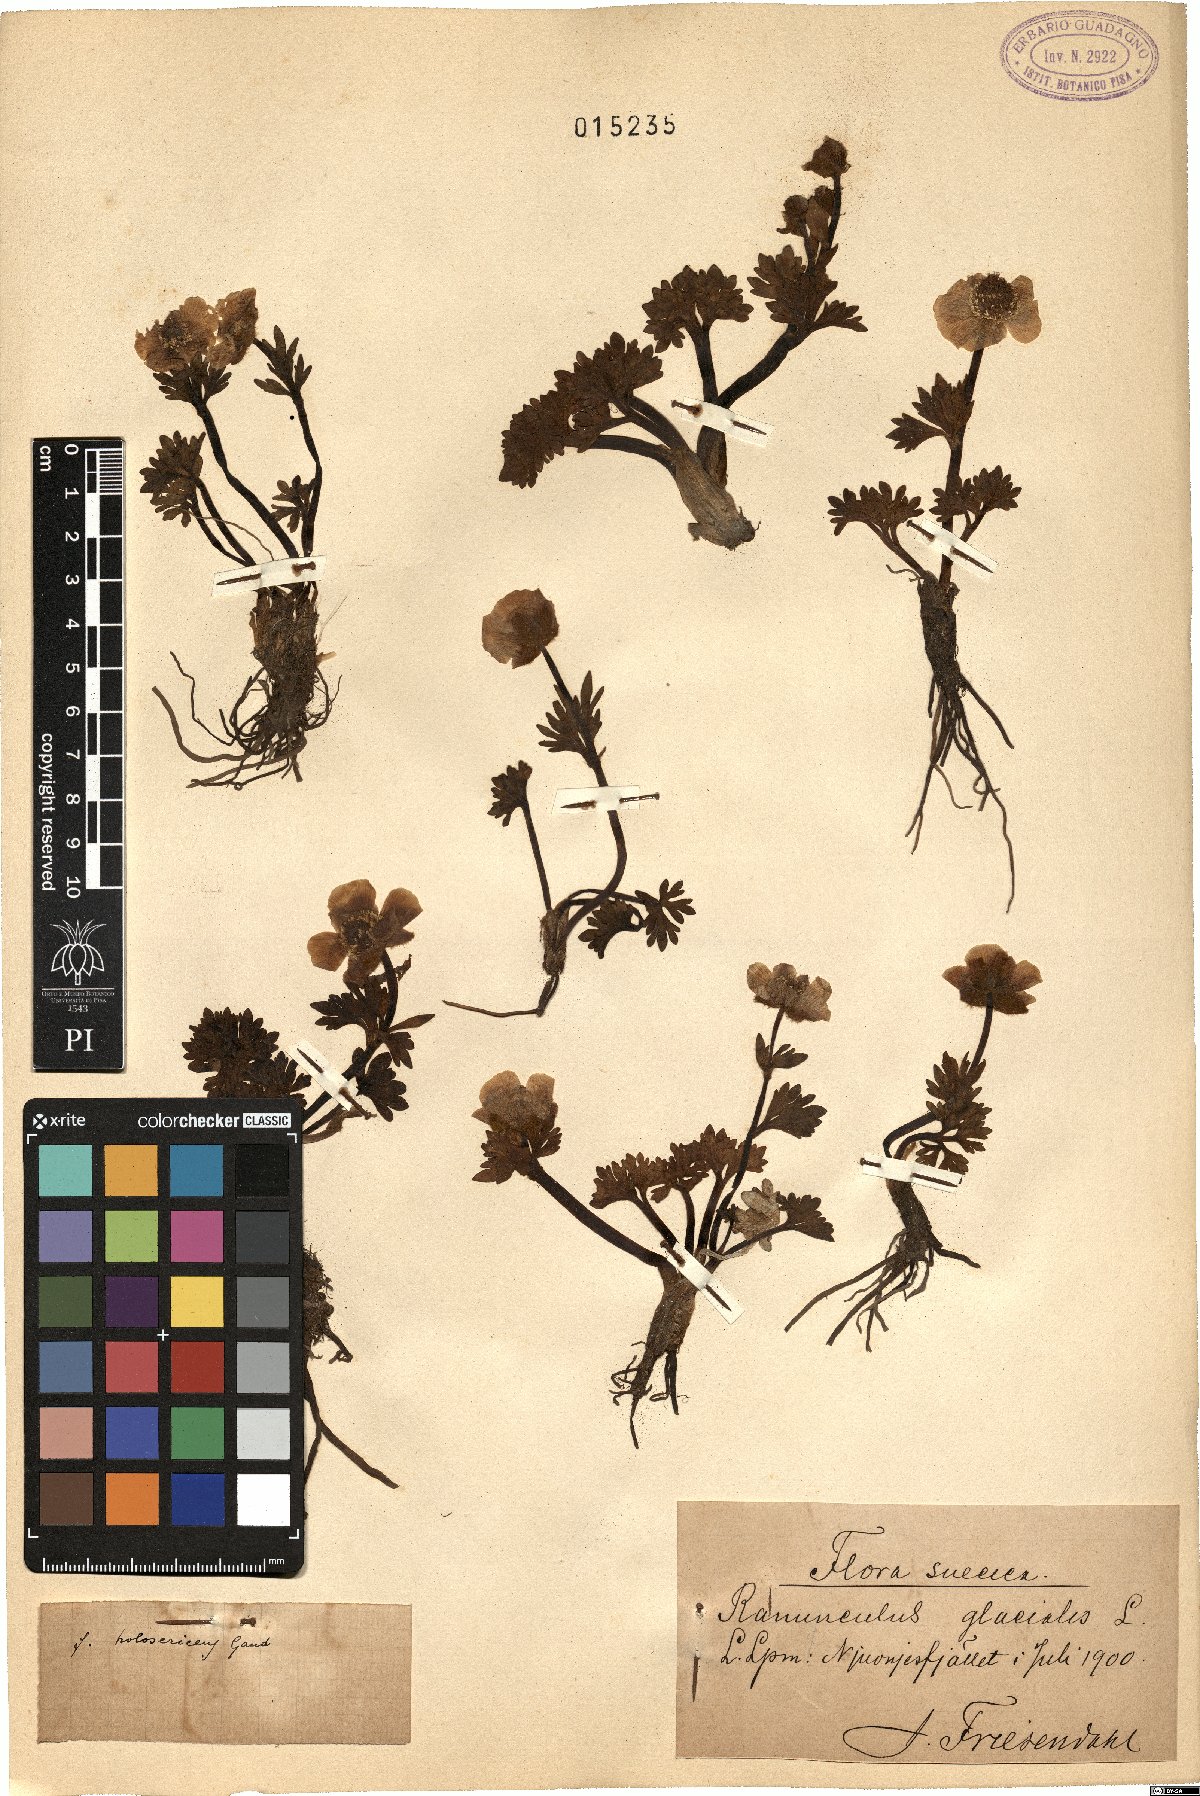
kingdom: Plantae
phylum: Tracheophyta
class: Magnoliopsida
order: Ranunculales
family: Ranunculaceae
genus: Ranunculus
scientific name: Ranunculus glacialis
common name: Glacier buttercup
